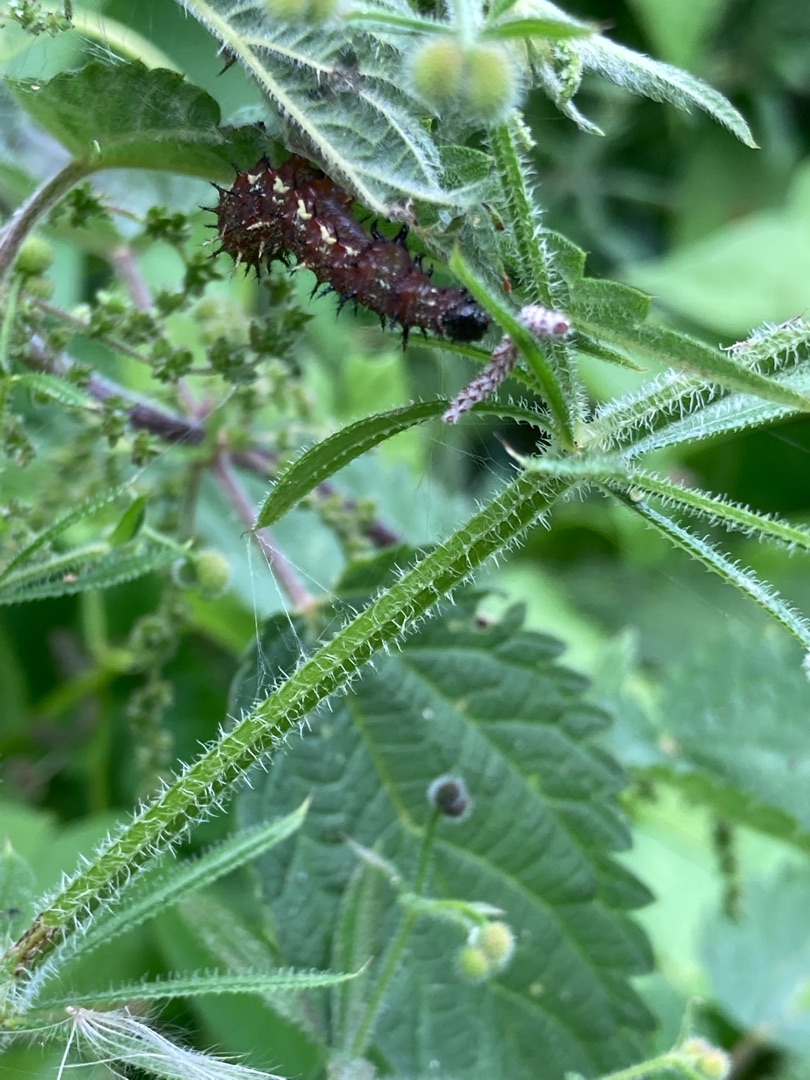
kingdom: Plantae
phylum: Tracheophyta
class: Magnoliopsida
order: Gentianales
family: Rubiaceae
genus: Galium
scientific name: Galium aparine
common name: Burre-snerre
